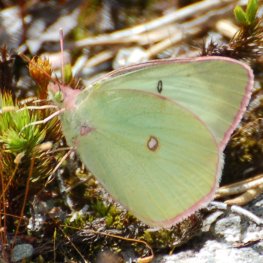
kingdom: Animalia
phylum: Arthropoda
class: Insecta
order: Lepidoptera
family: Pieridae
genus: Colias
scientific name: Colias interior
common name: Pink-edged Sulphur
